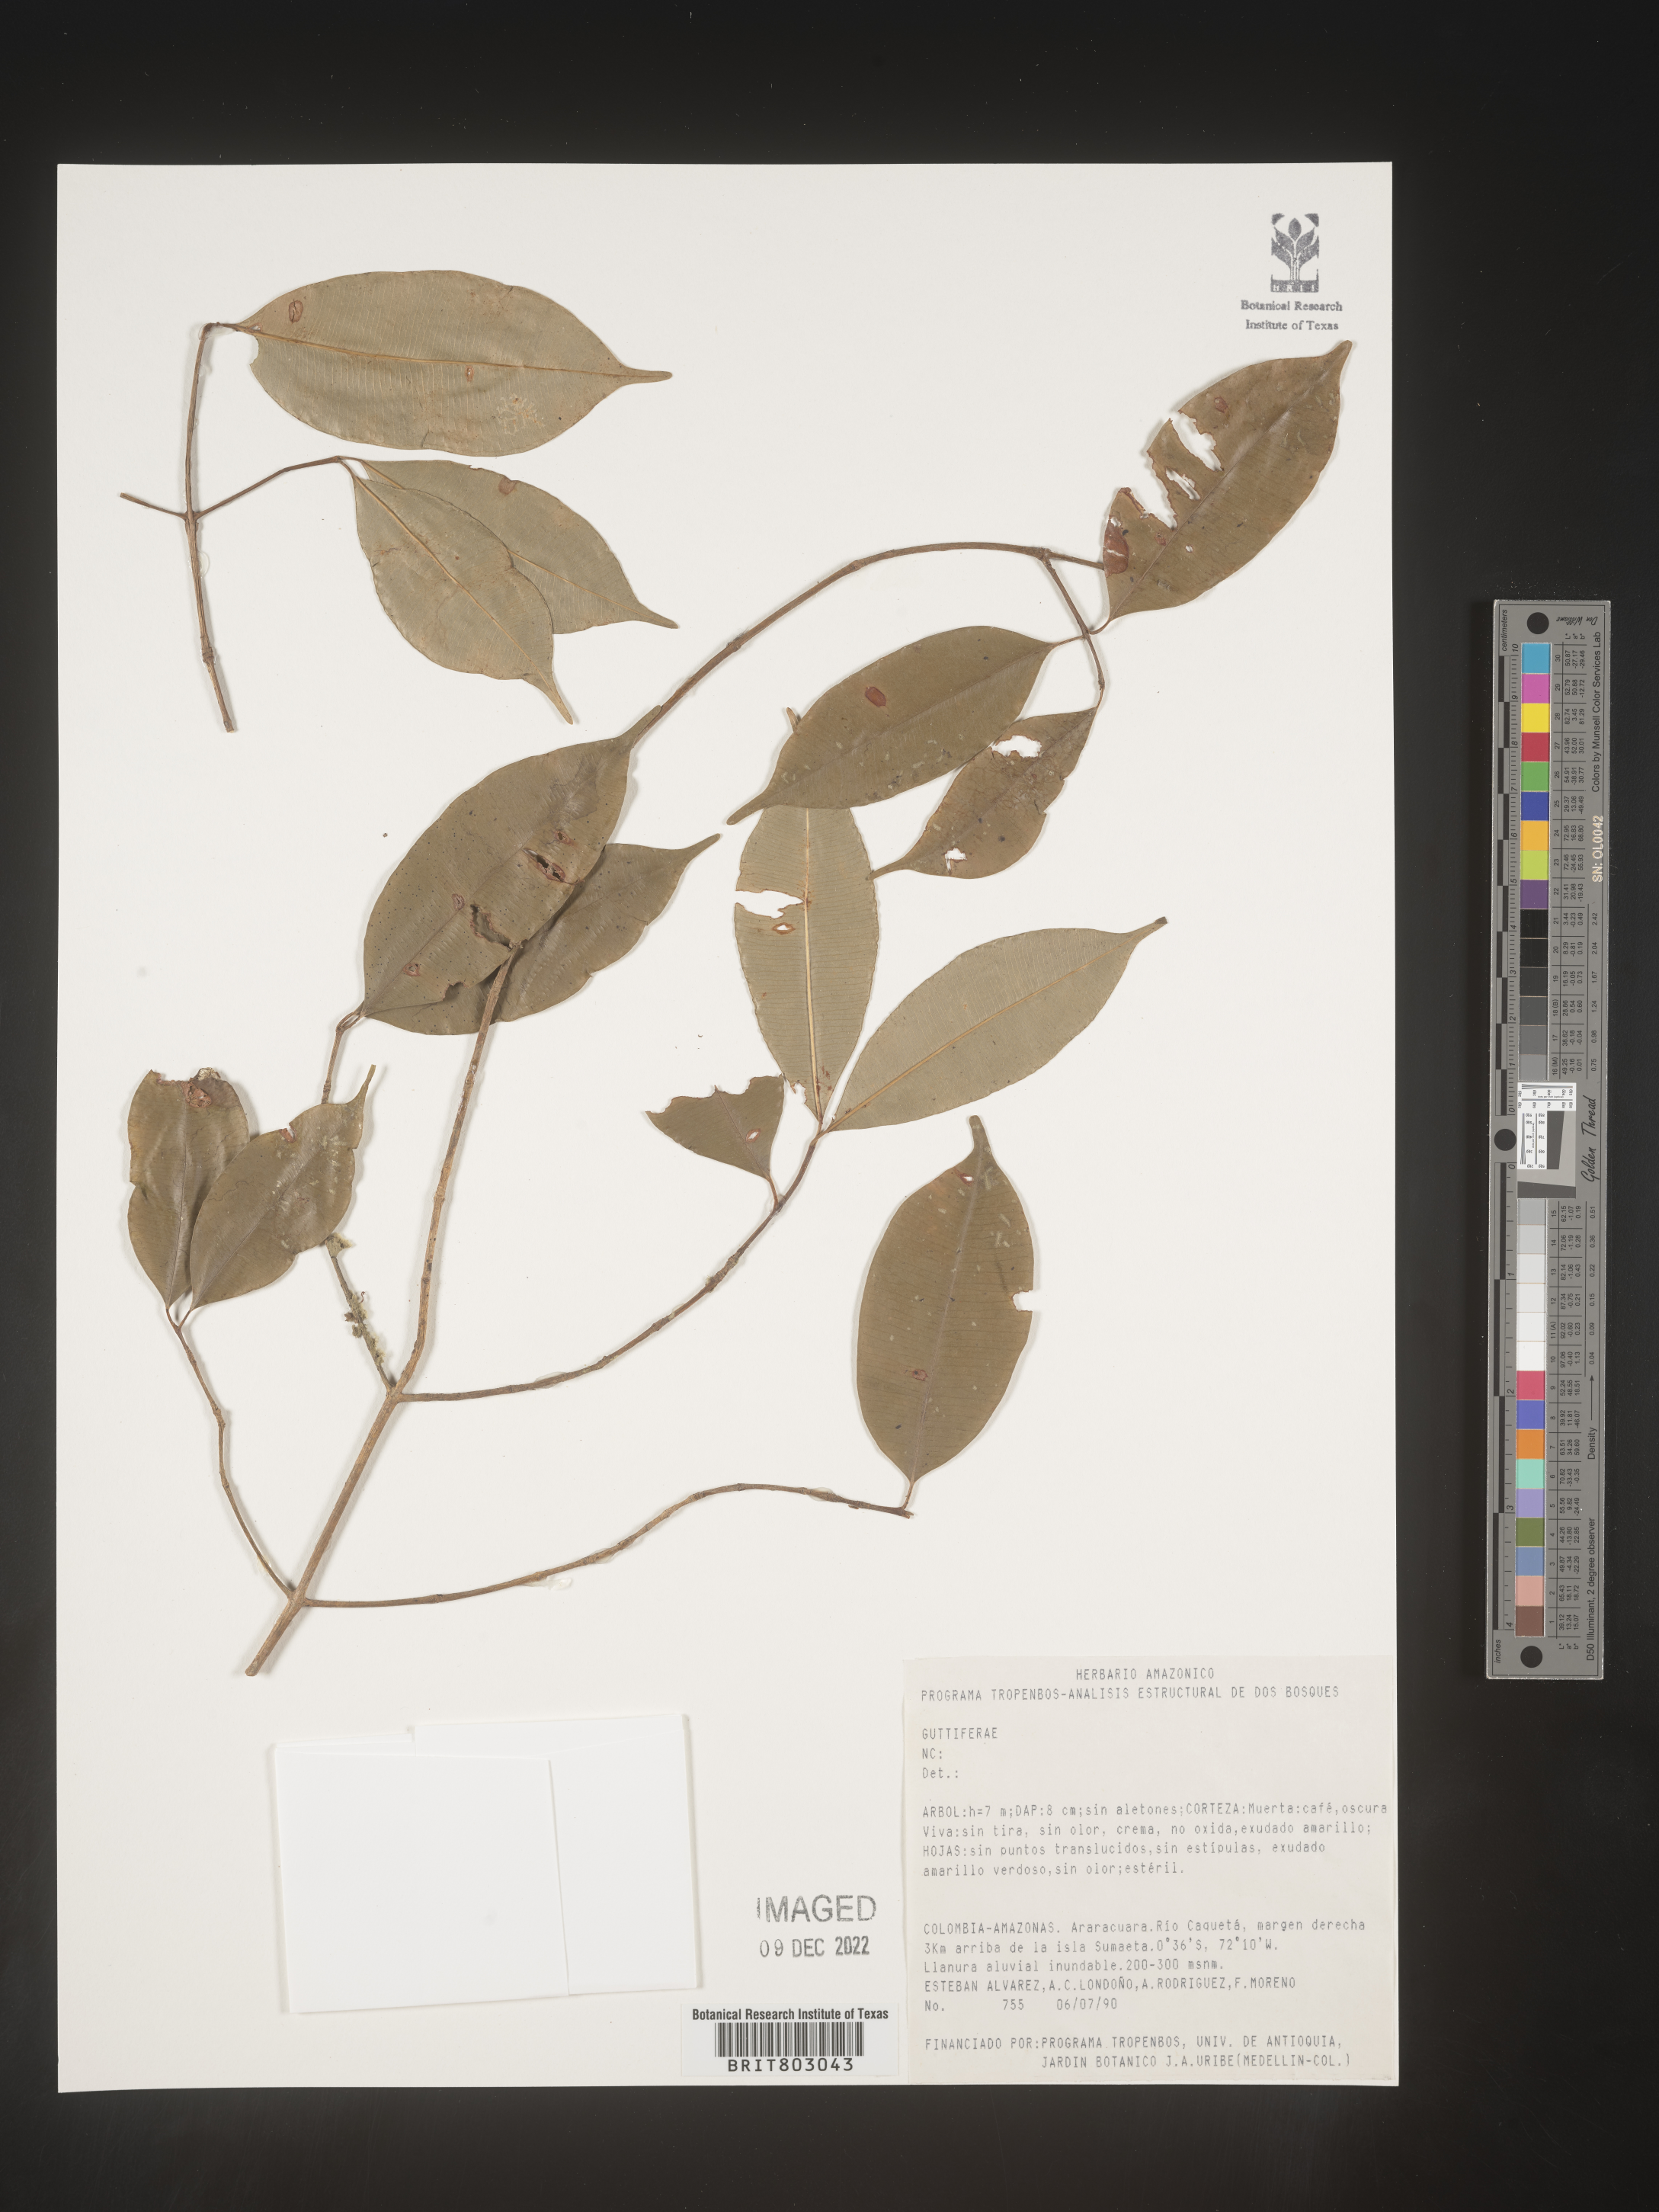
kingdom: Plantae
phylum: Tracheophyta
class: Magnoliopsida
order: Malpighiales
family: Clusiaceae
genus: Symphonia
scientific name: Symphonia
